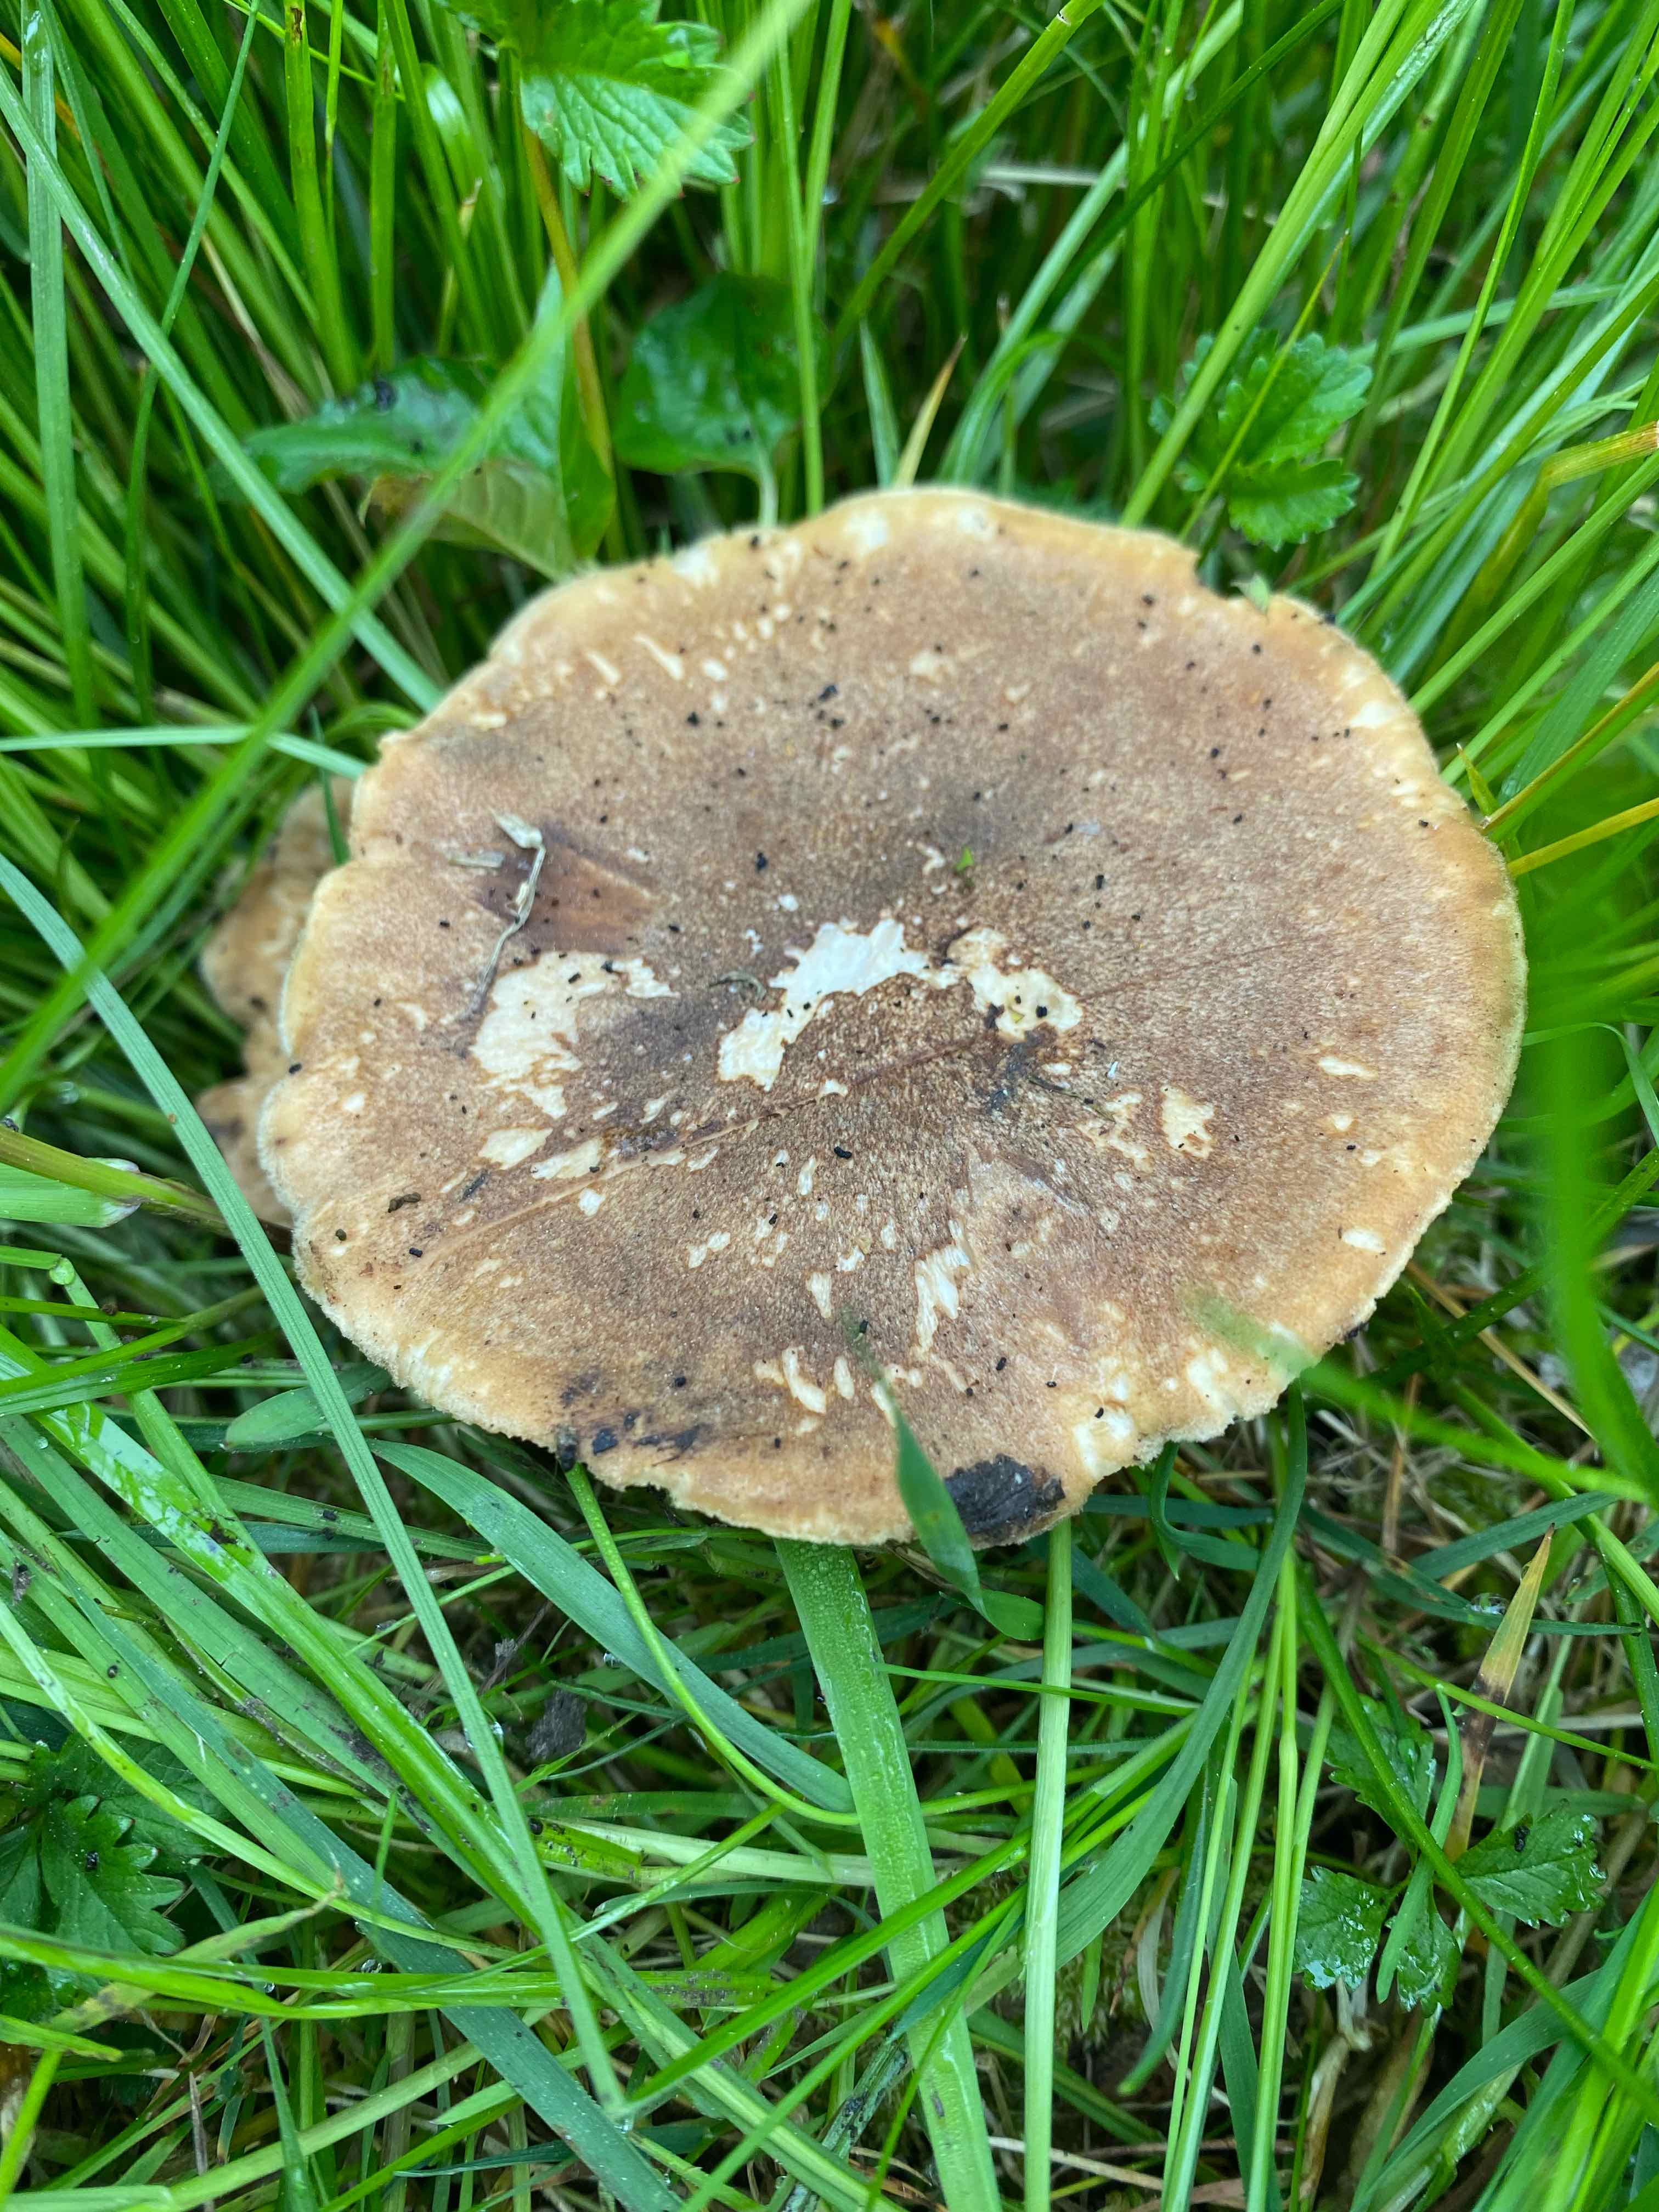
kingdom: Fungi
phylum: Basidiomycota
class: Agaricomycetes
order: Polyporales
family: Polyporaceae
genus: Lentinus
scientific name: Lentinus substrictus
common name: forårs-stilkporesvamp
